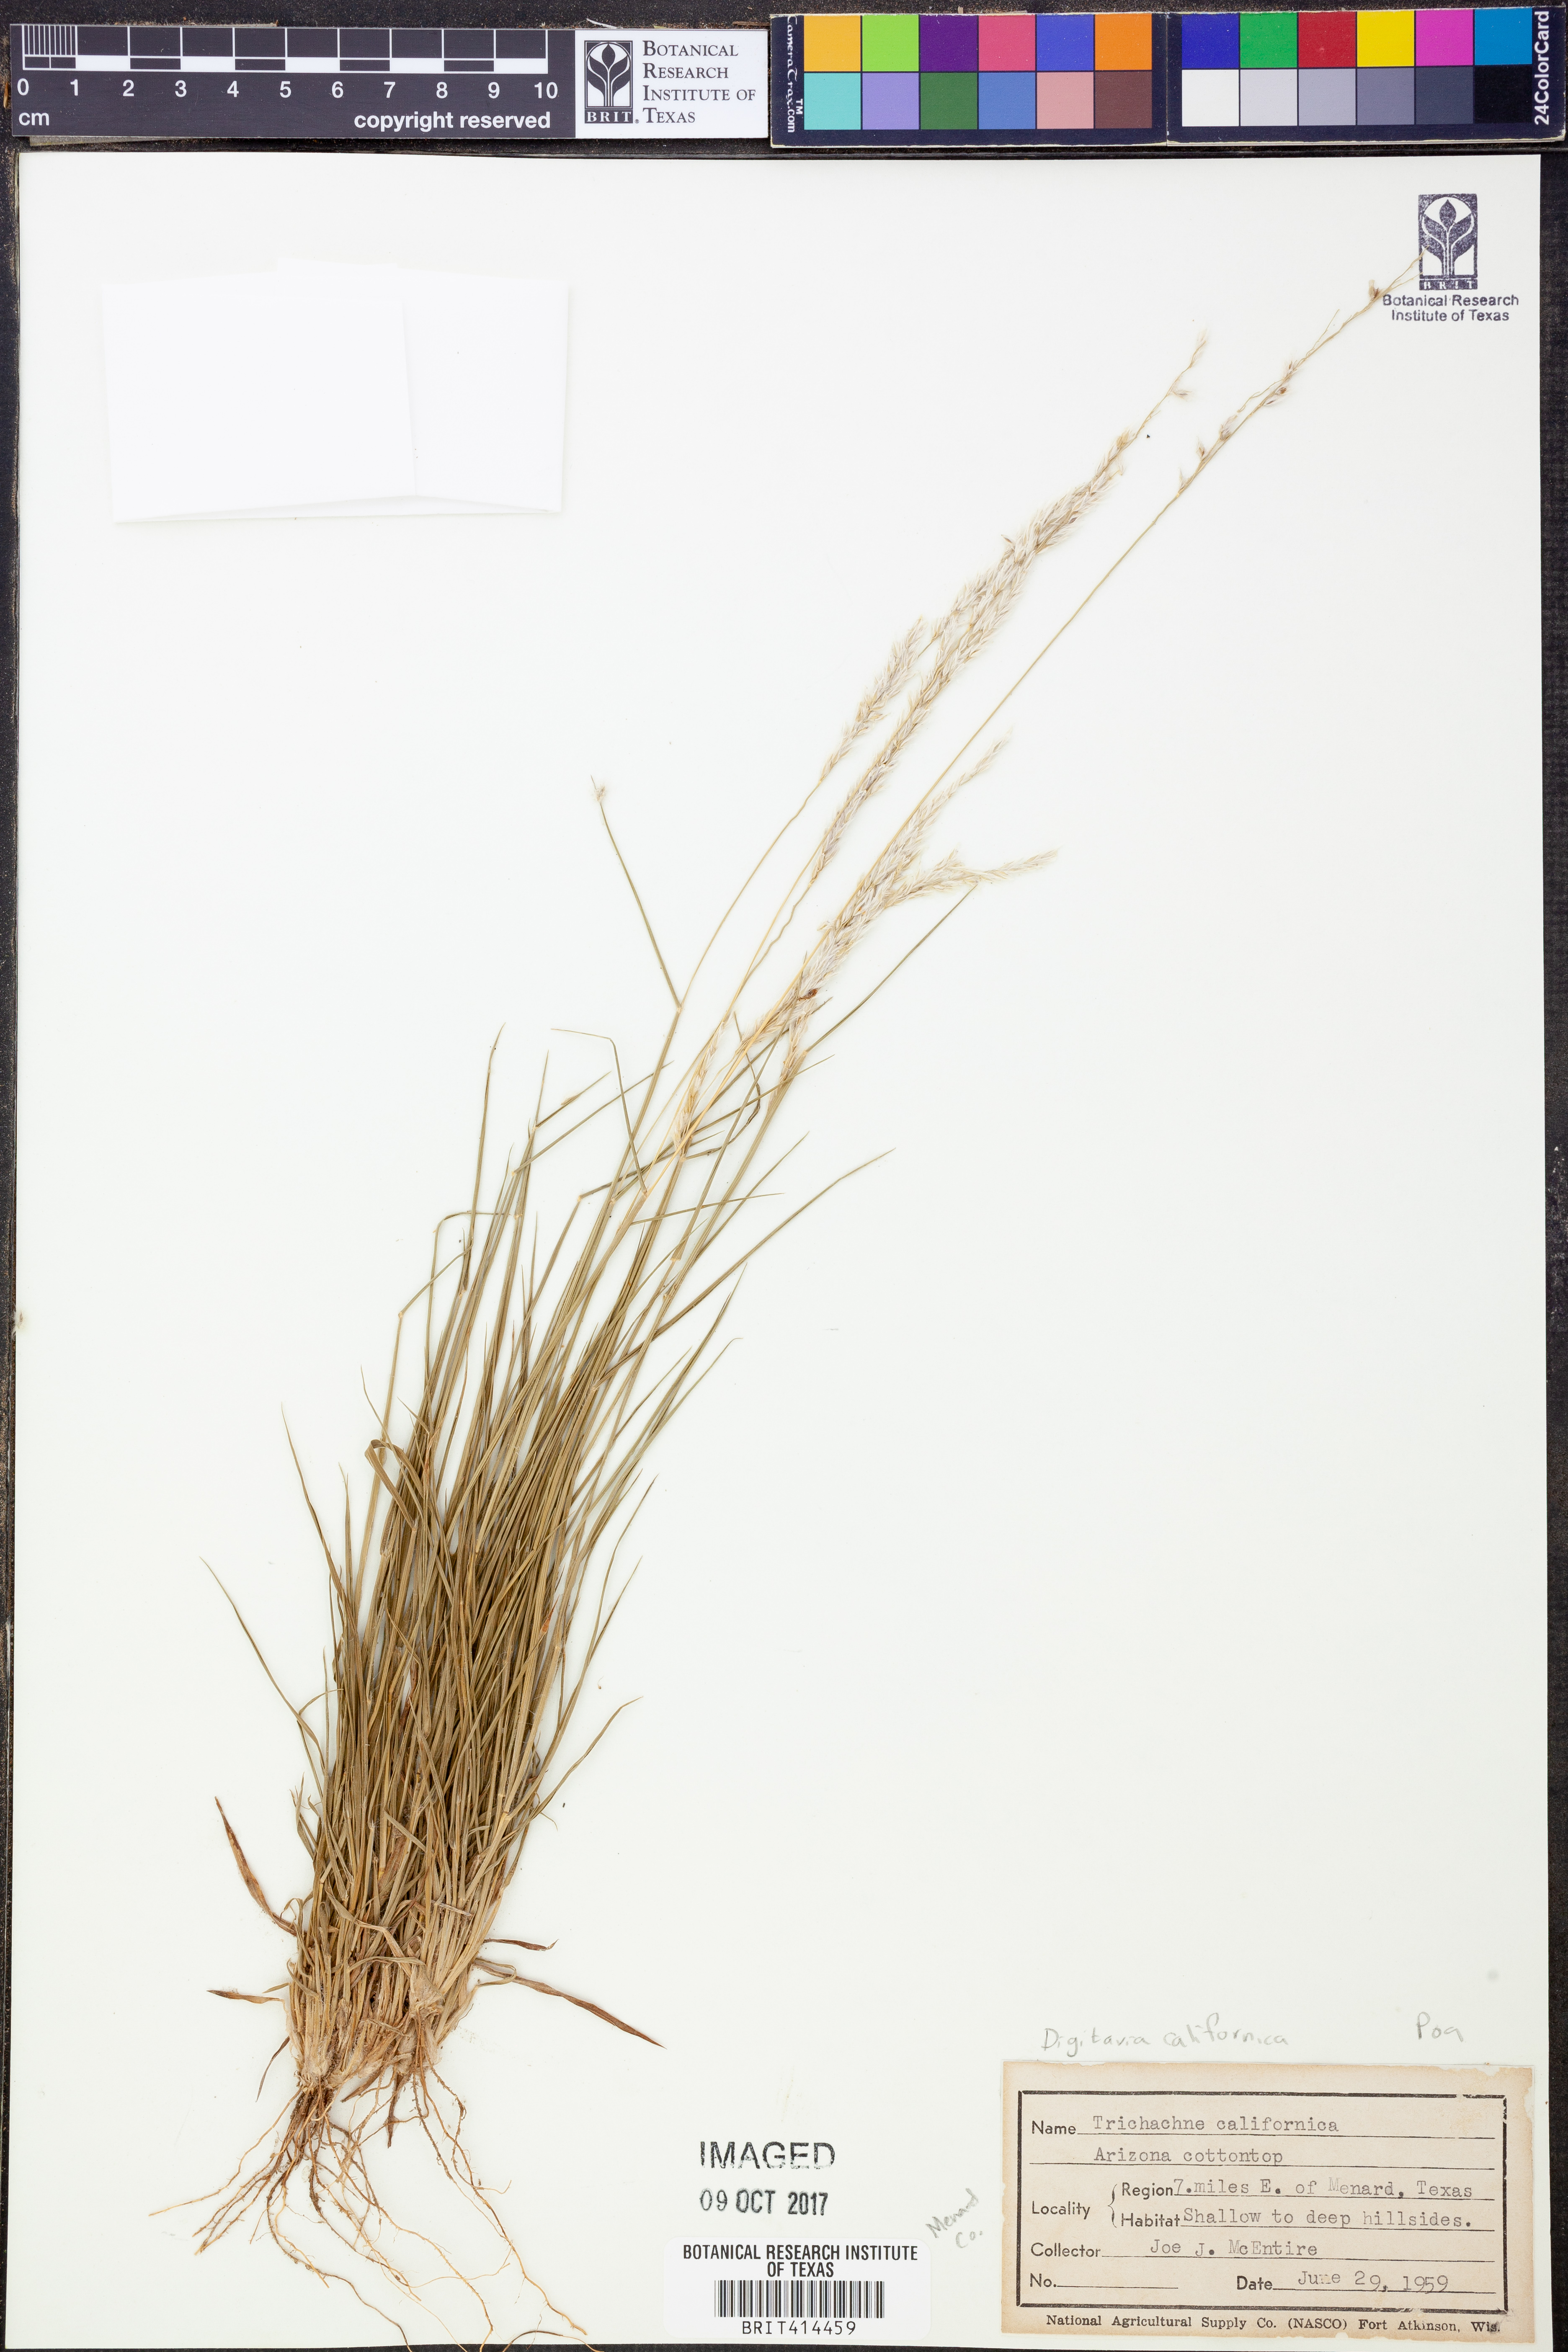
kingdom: Plantae
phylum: Tracheophyta
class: Liliopsida
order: Poales
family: Poaceae
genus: Digitaria
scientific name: Digitaria californica
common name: Arizona cottontop
